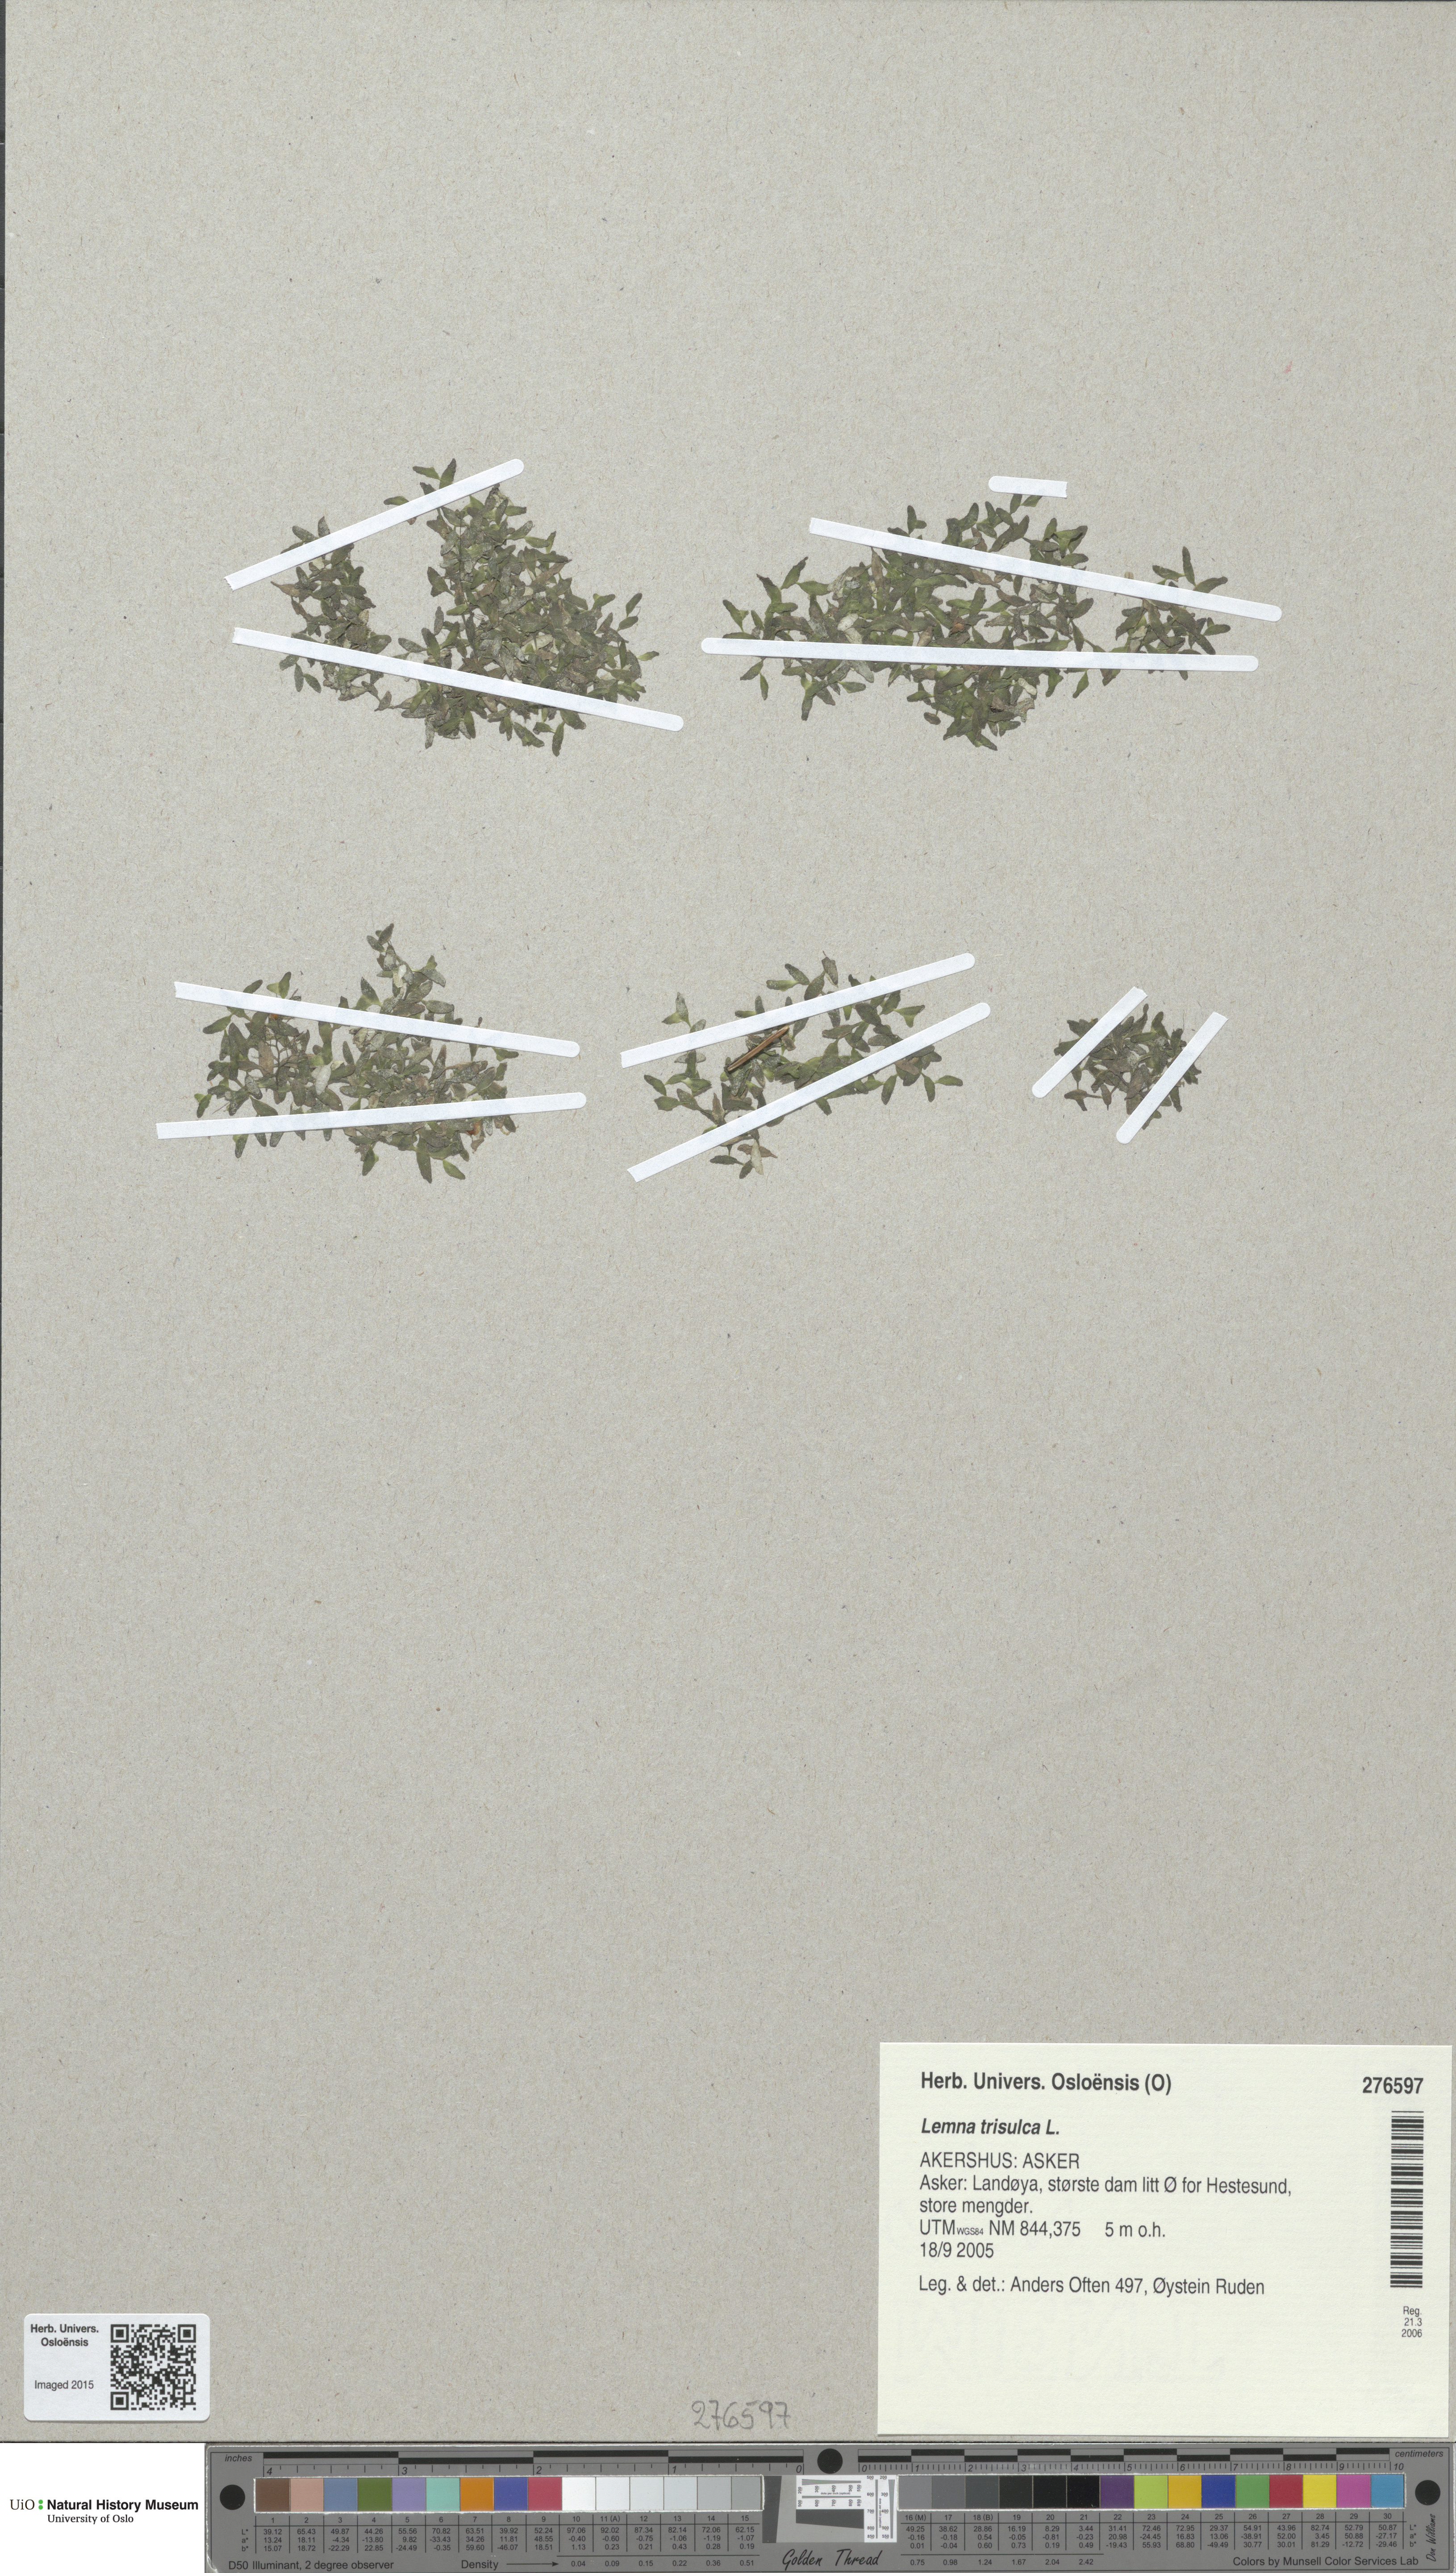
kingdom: Plantae
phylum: Tracheophyta
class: Liliopsida
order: Alismatales
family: Araceae
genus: Lemna
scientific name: Lemna trisulca
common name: Ivy-leaved duckweed
